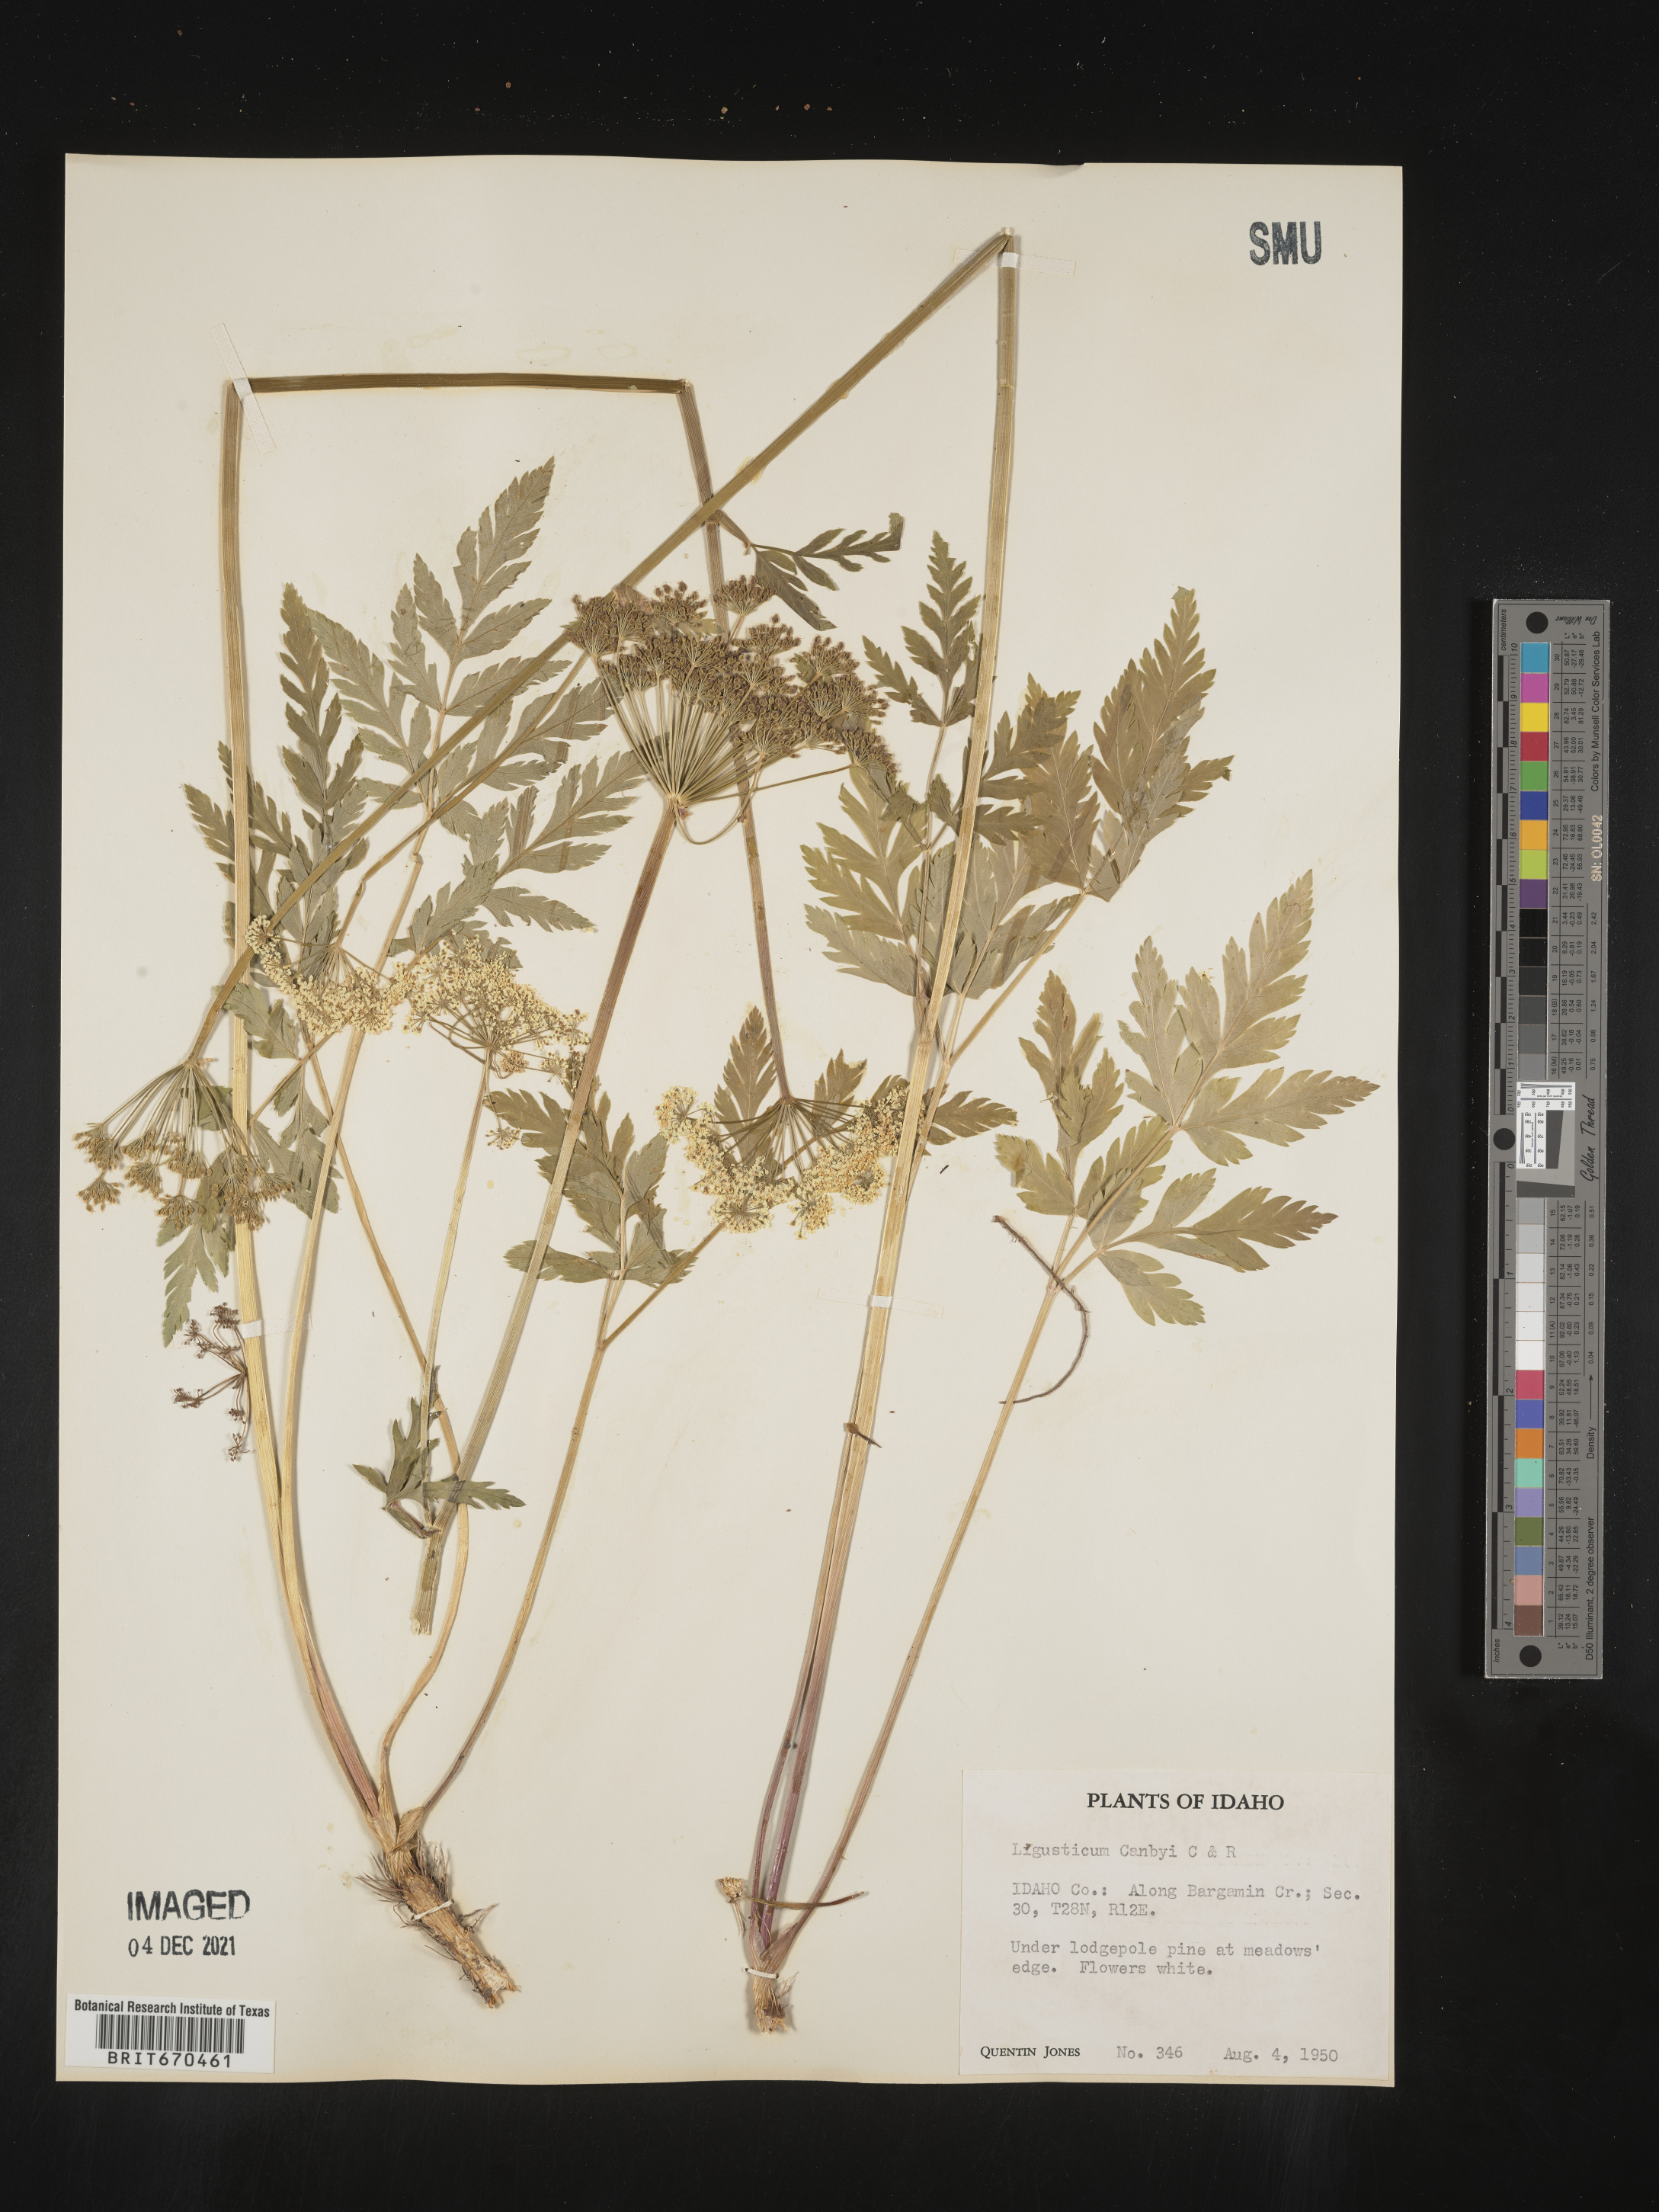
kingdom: Plantae
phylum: Tracheophyta
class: Magnoliopsida
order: Apiales
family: Apiaceae
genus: Ligusticum
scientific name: Ligusticum
